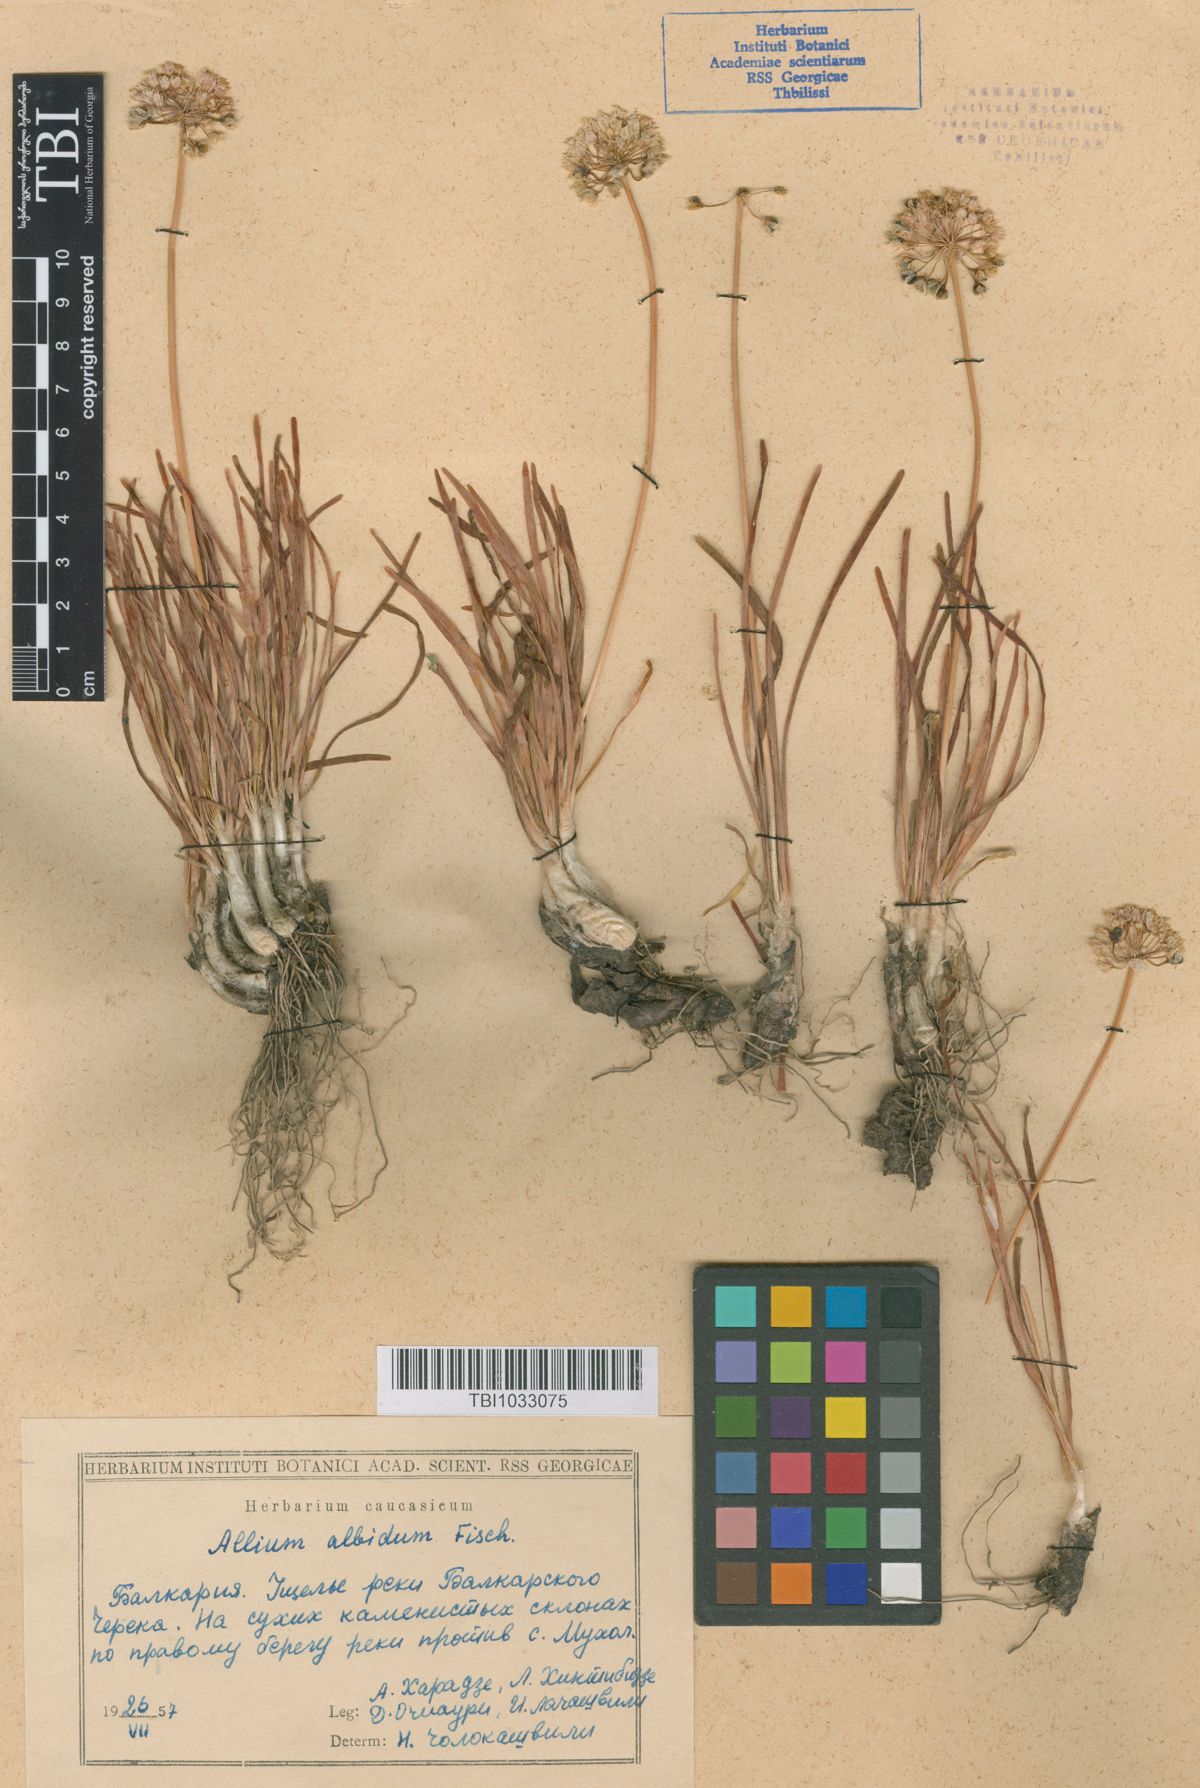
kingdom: Plantae
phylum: Tracheophyta
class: Liliopsida
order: Asparagales
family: Amaryllidaceae
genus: Allium
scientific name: Allium denudatum
